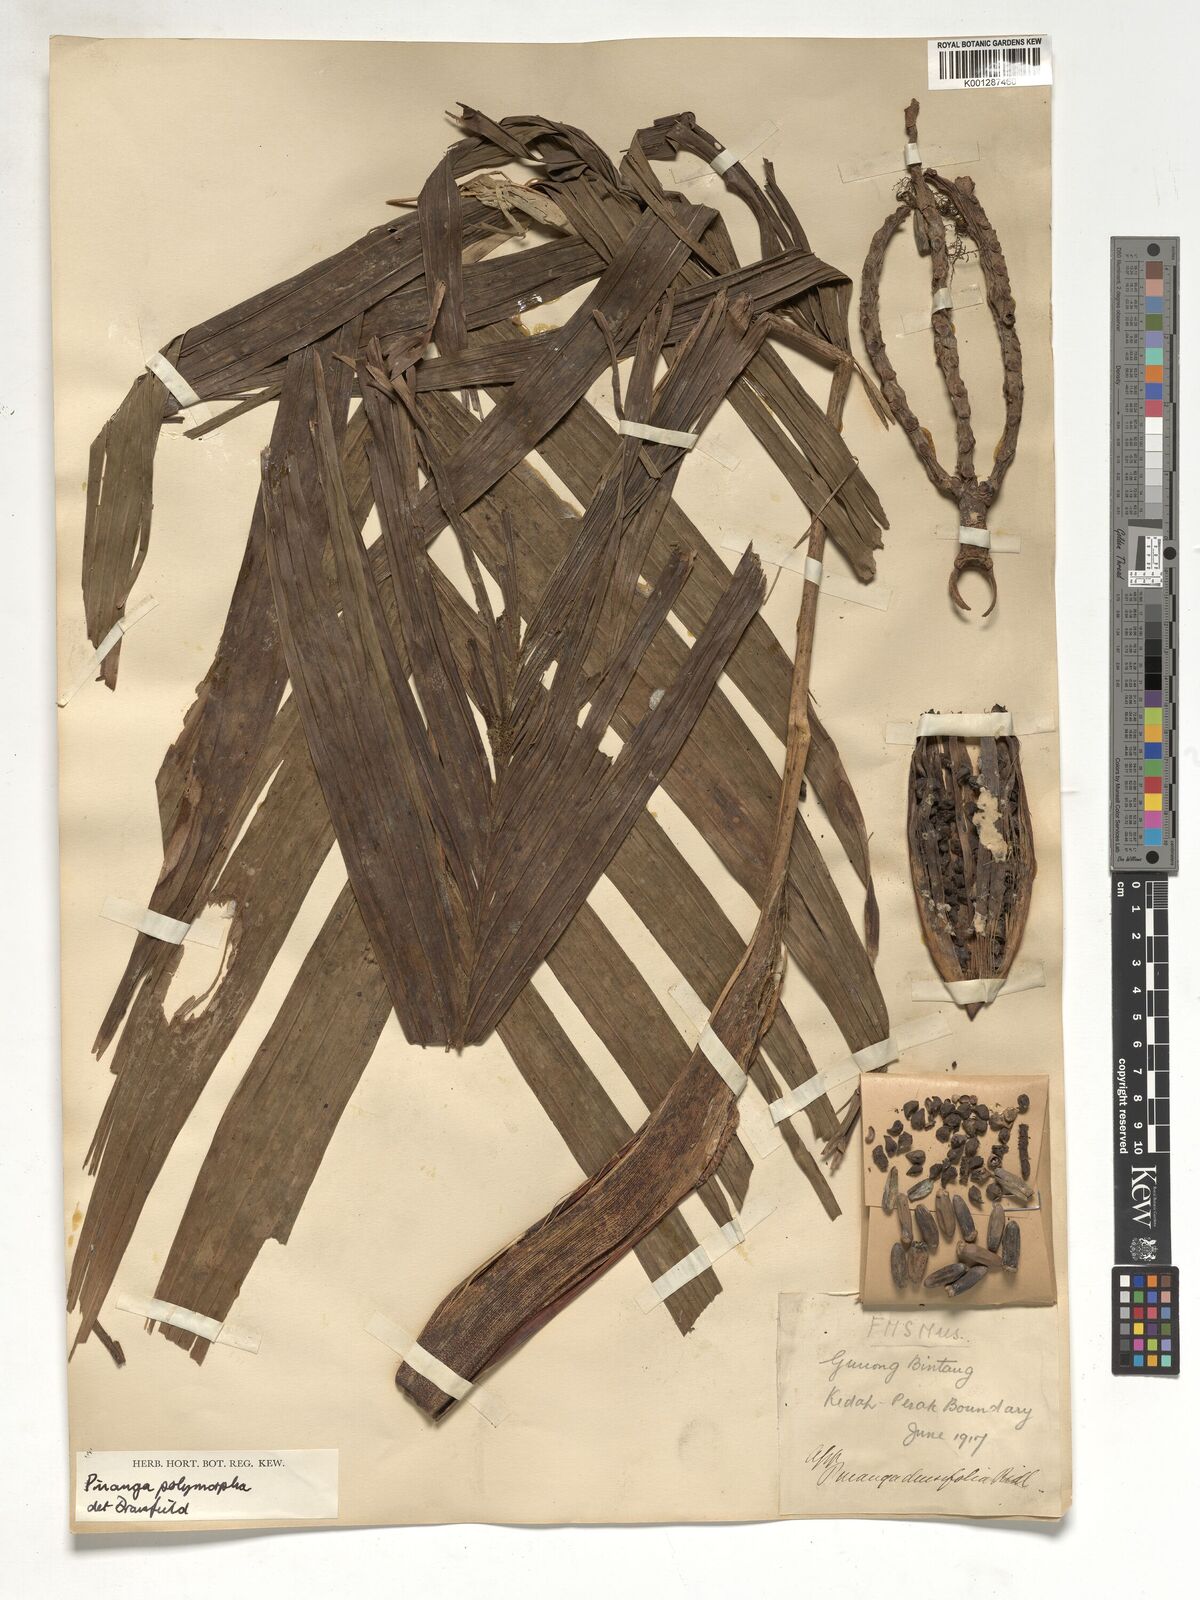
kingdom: Plantae
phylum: Tracheophyta
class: Liliopsida
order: Arecales
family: Arecaceae
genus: Pinanga
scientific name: Pinanga polymorpha
